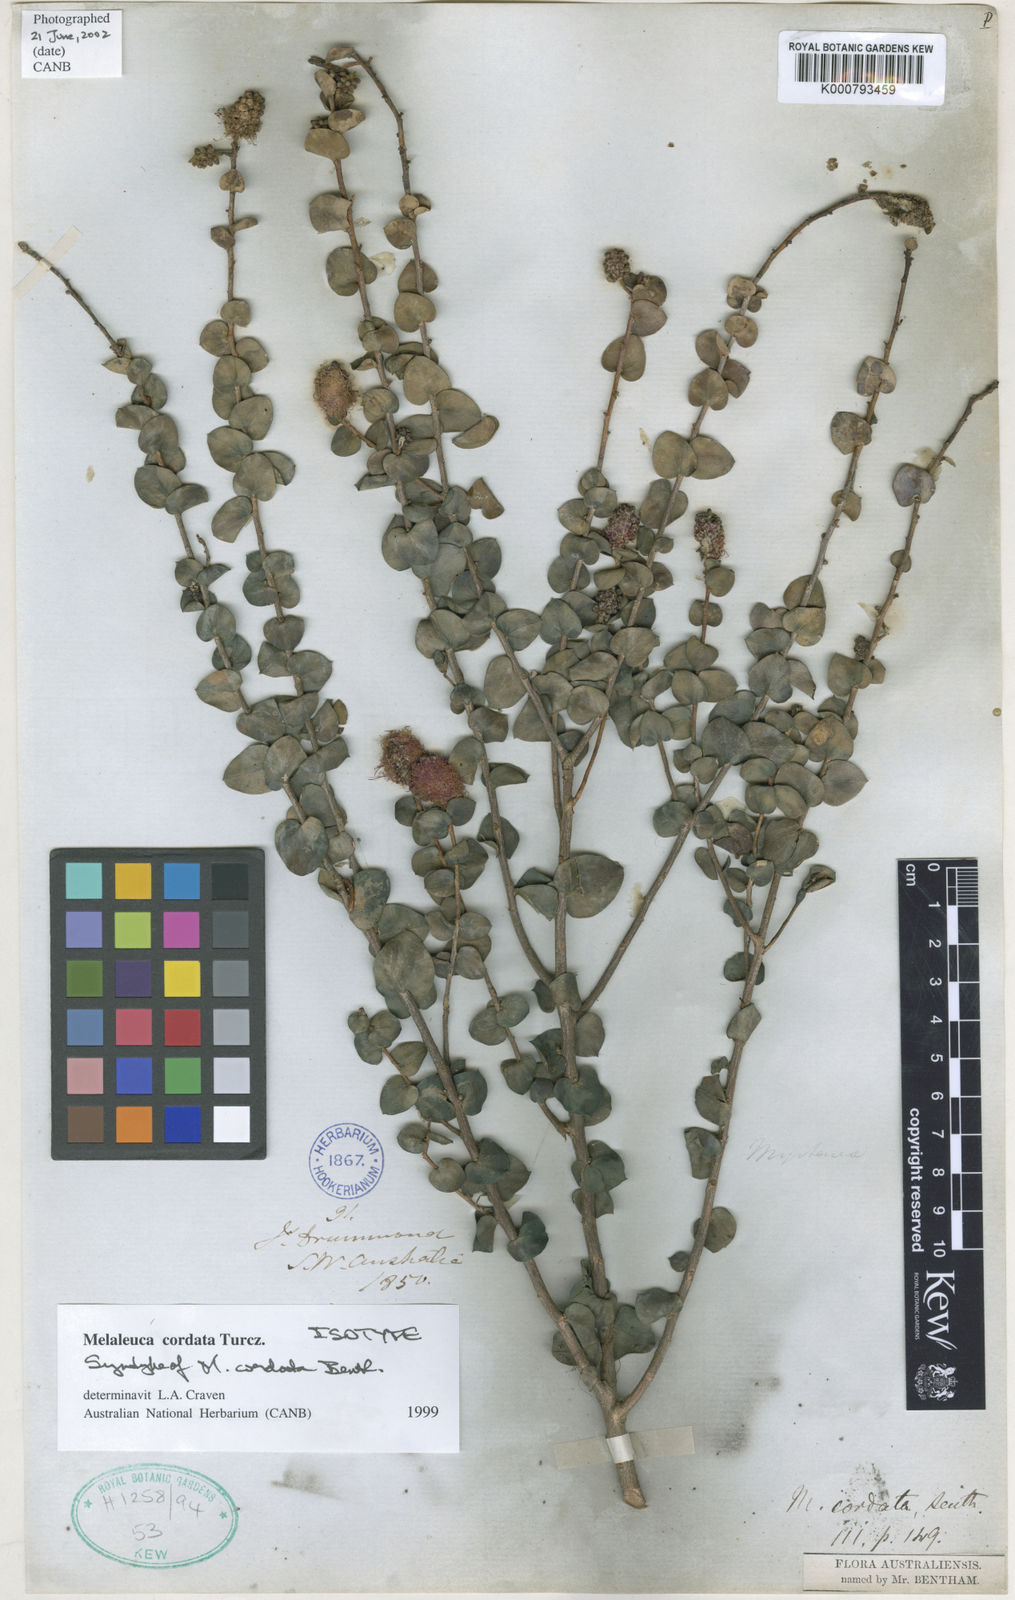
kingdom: Plantae
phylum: Tracheophyta
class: Magnoliopsida
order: Myrtales
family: Myrtaceae
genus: Melaleuca
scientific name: Melaleuca cordata
